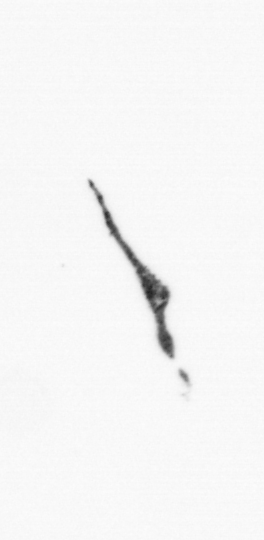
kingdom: Bacteria
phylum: Cyanobacteria
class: Cyanobacteriia
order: Cyanobacteriales
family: Microcoleaceae
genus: Trichodesmium
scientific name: Trichodesmium
